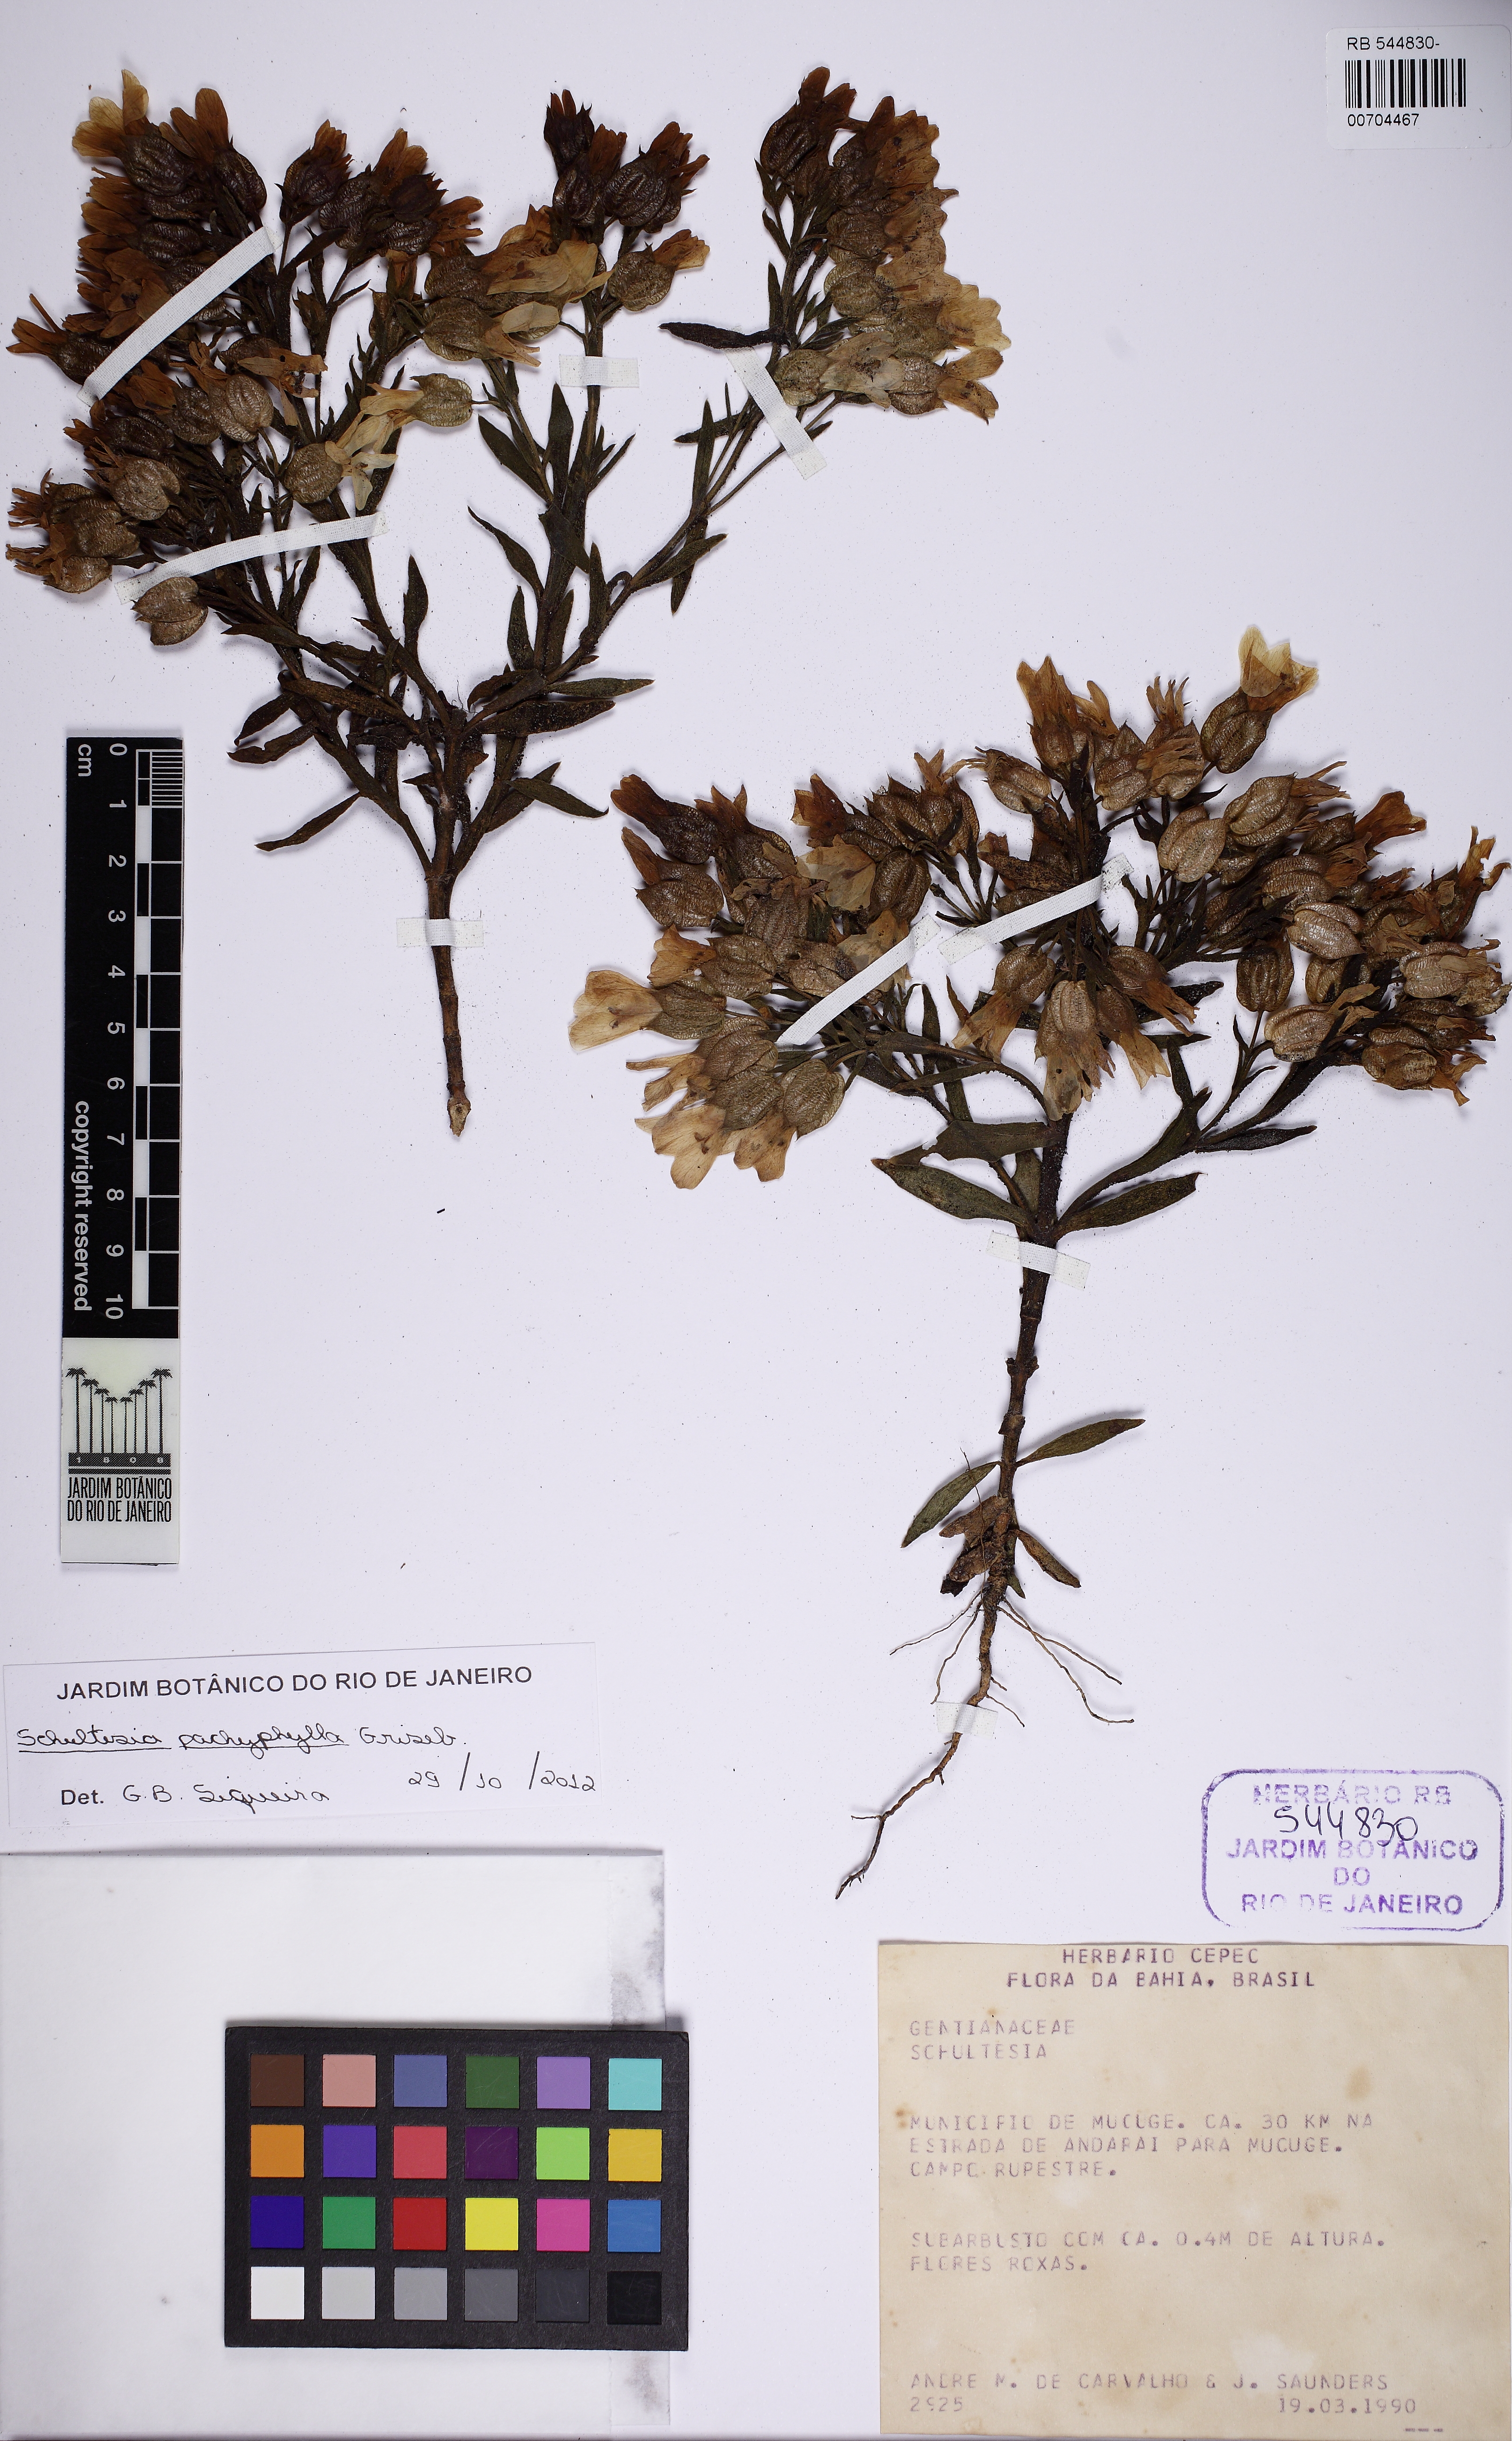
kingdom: Plantae
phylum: Tracheophyta
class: Magnoliopsida
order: Gentianales
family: Gentianaceae
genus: Schultesia
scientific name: Schultesia pachyphylla
